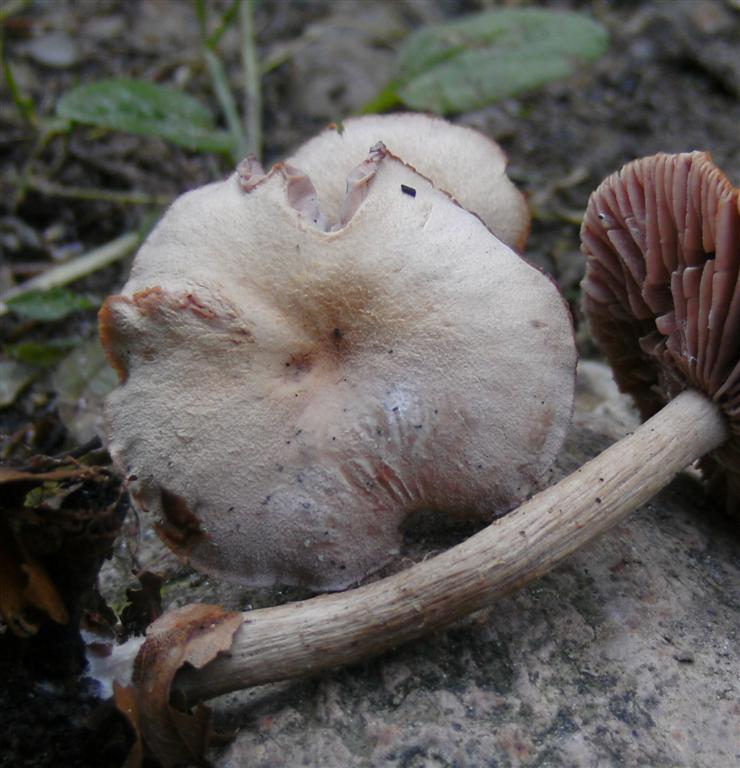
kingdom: Fungi
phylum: Basidiomycota
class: Agaricomycetes
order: Agaricales
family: Hydnangiaceae
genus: Laccaria
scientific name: Laccaria proxima
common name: stor ametysthat
